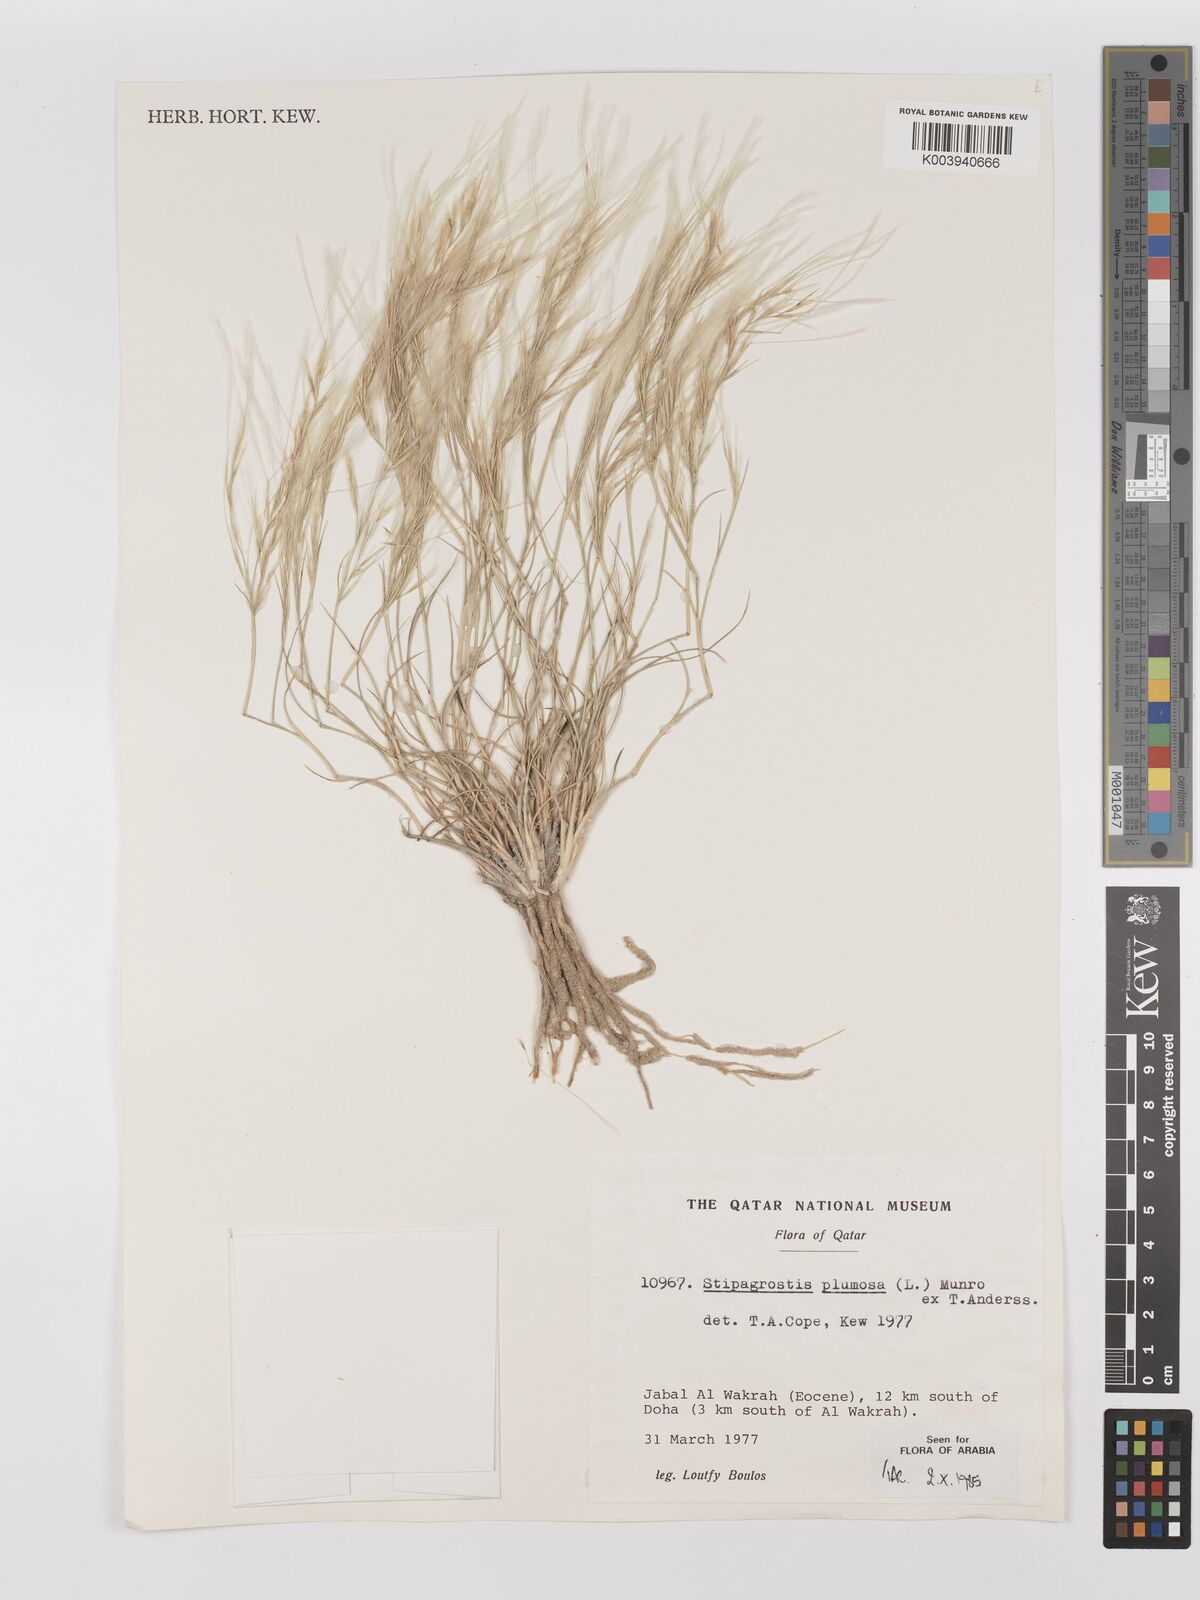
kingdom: Plantae
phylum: Tracheophyta
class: Liliopsida
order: Poales
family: Poaceae
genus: Stipagrostis
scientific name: Stipagrostis plumosa
